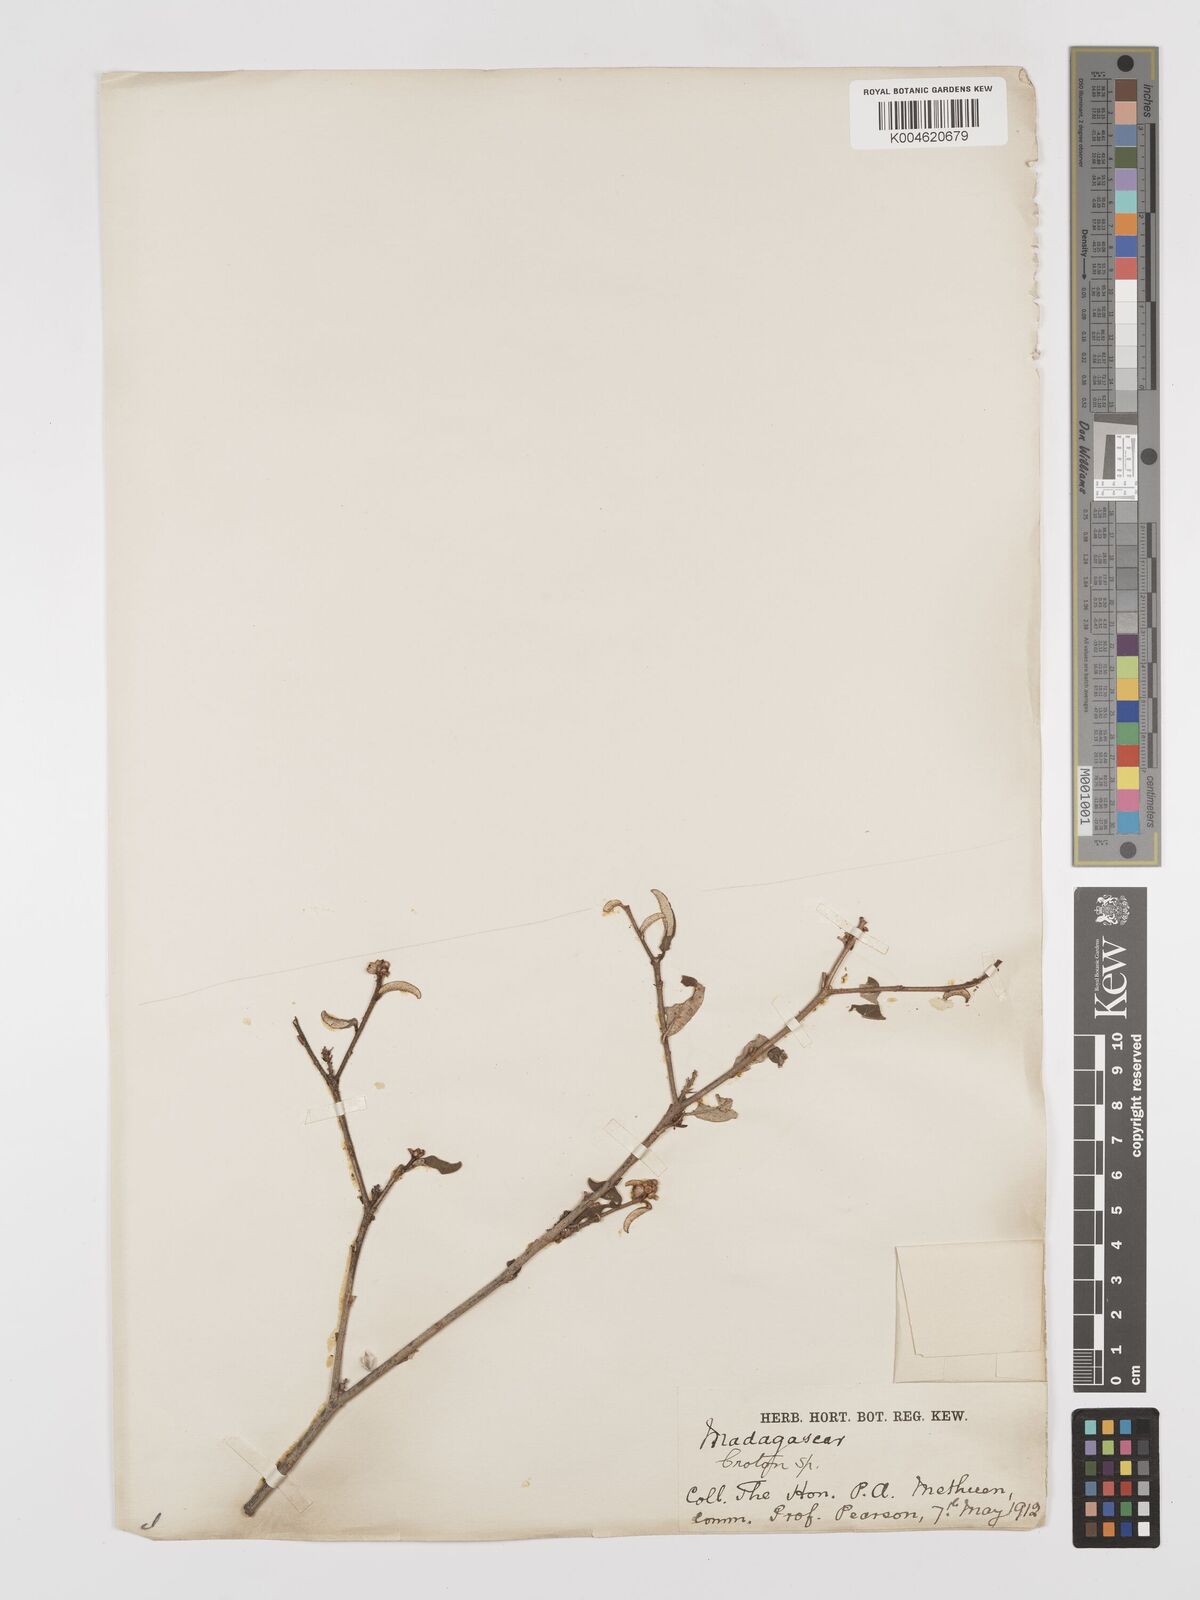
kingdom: Plantae
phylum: Tracheophyta
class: Magnoliopsida
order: Malpighiales
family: Euphorbiaceae
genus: Croton
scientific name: Croton
